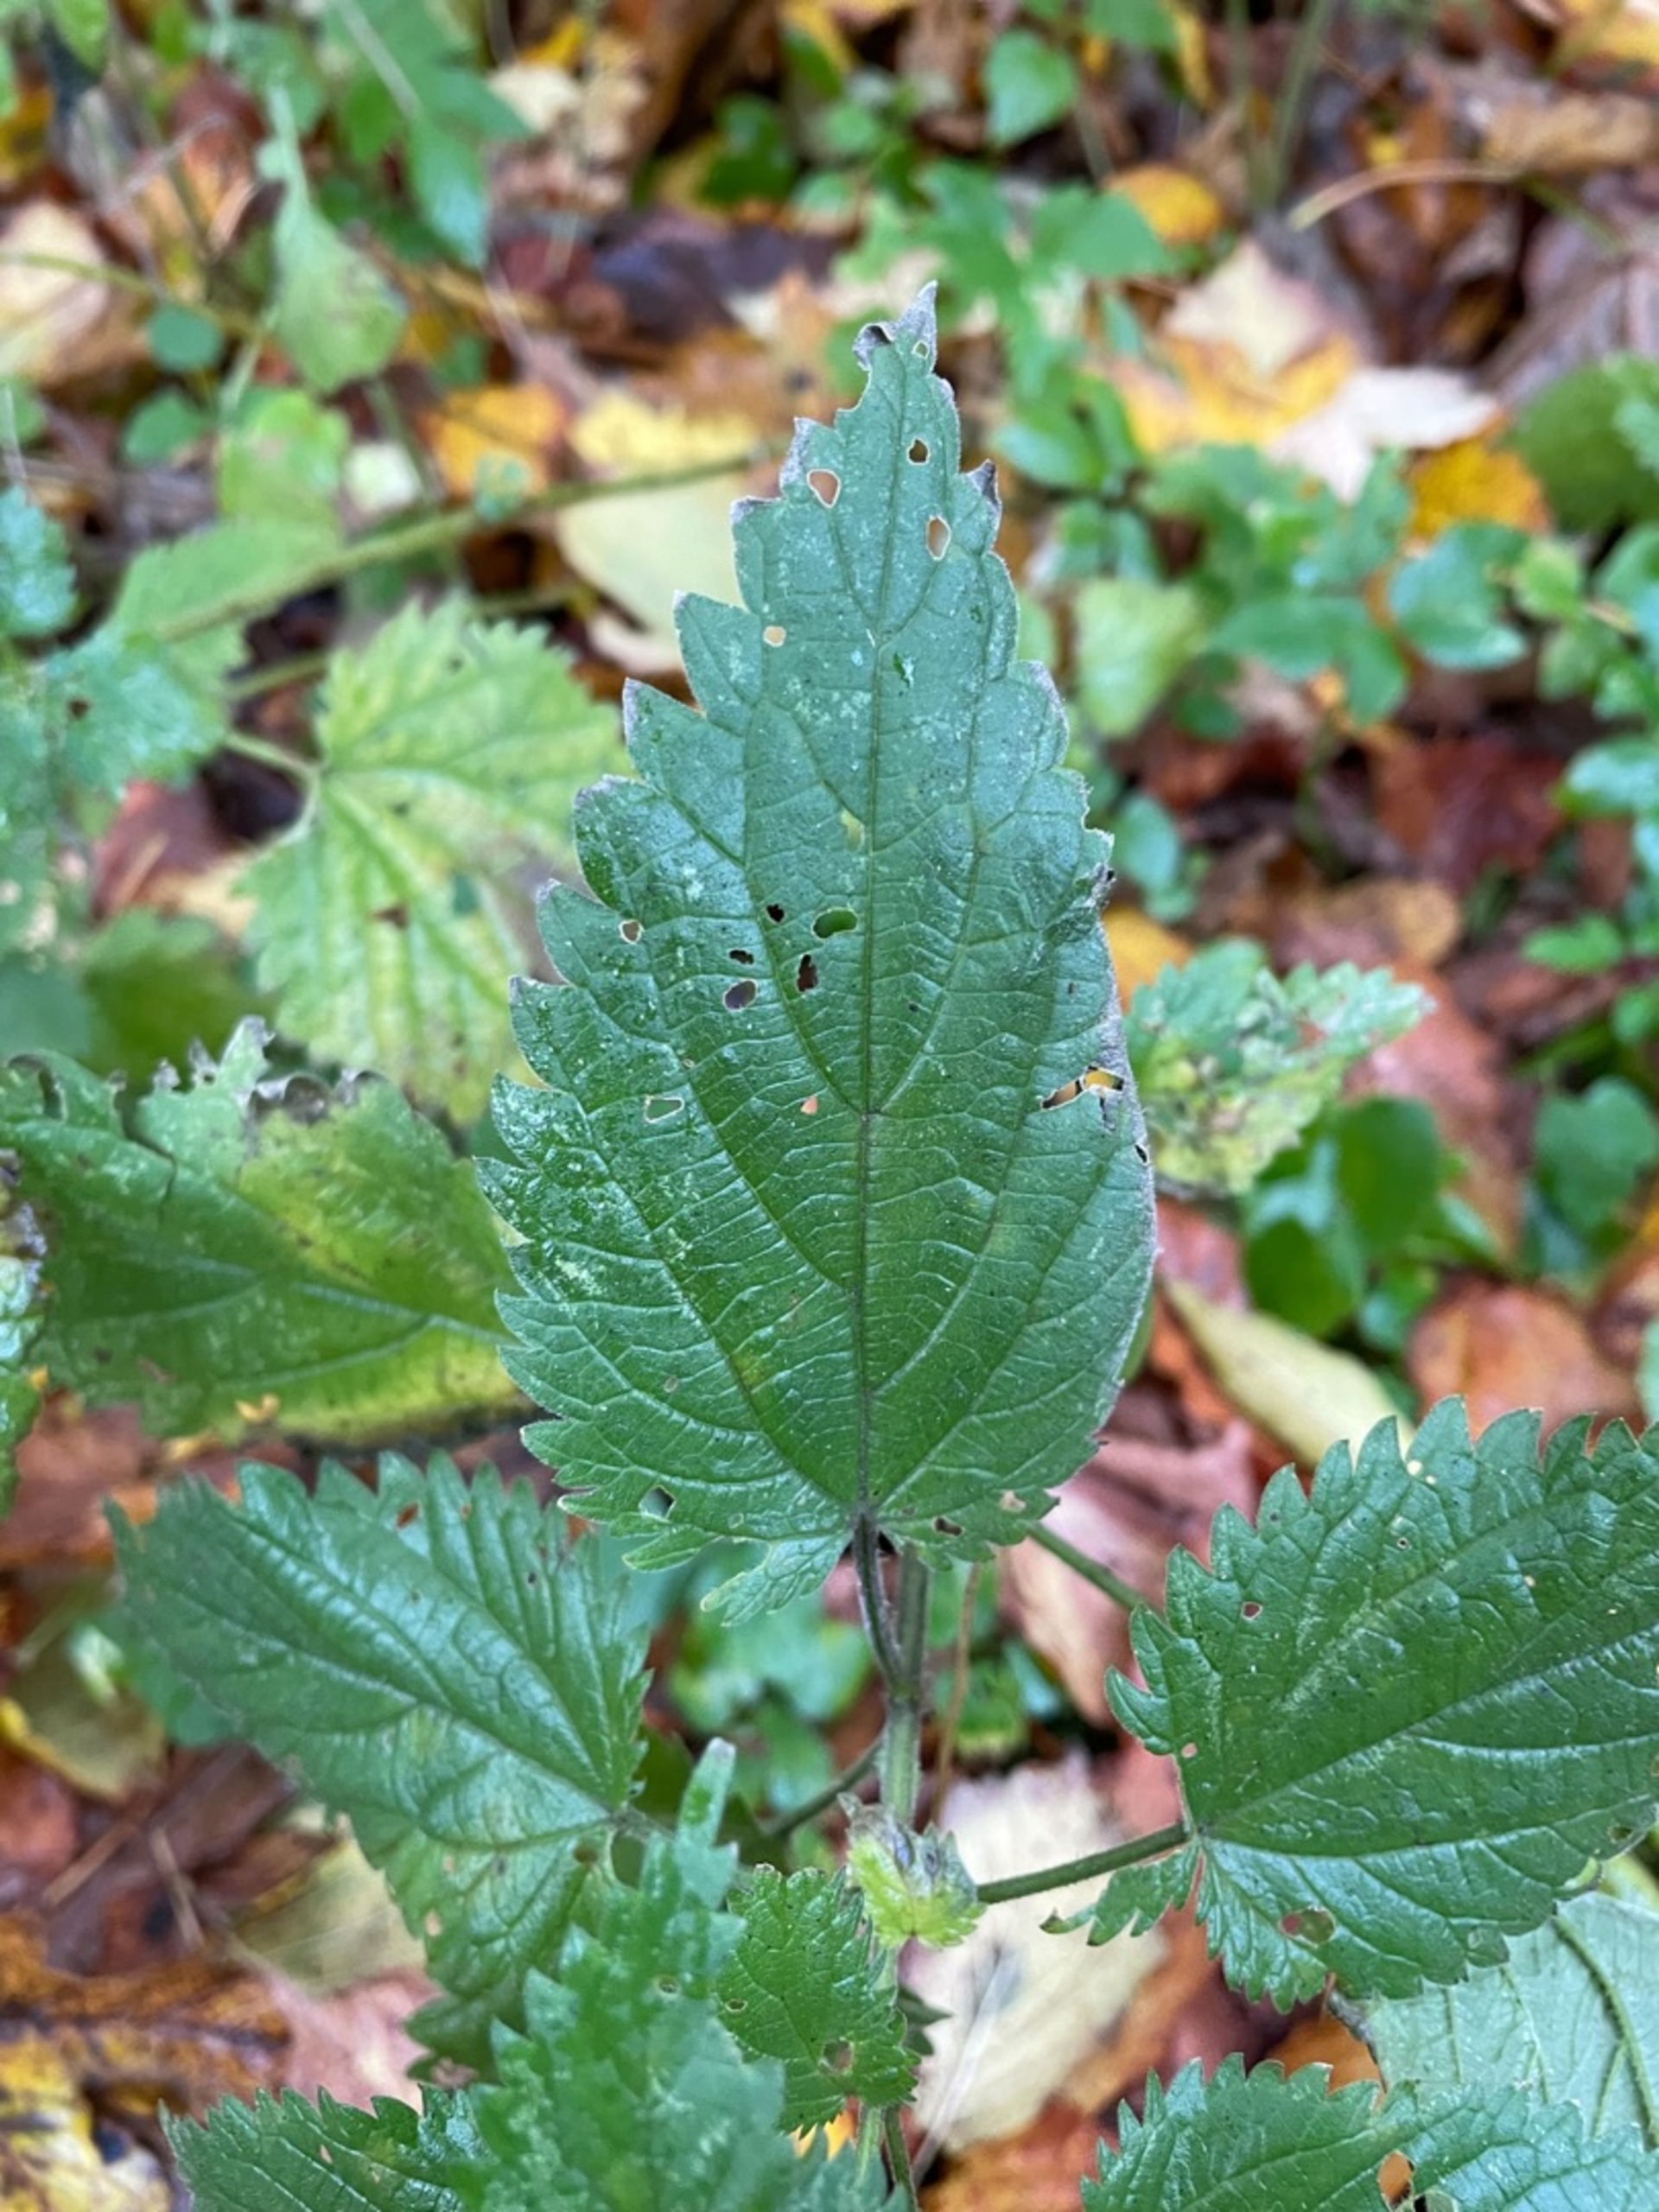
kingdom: Plantae
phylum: Tracheophyta
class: Magnoliopsida
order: Rosales
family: Urticaceae
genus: Urtica
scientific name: Urtica dioica
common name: Stor nælde
